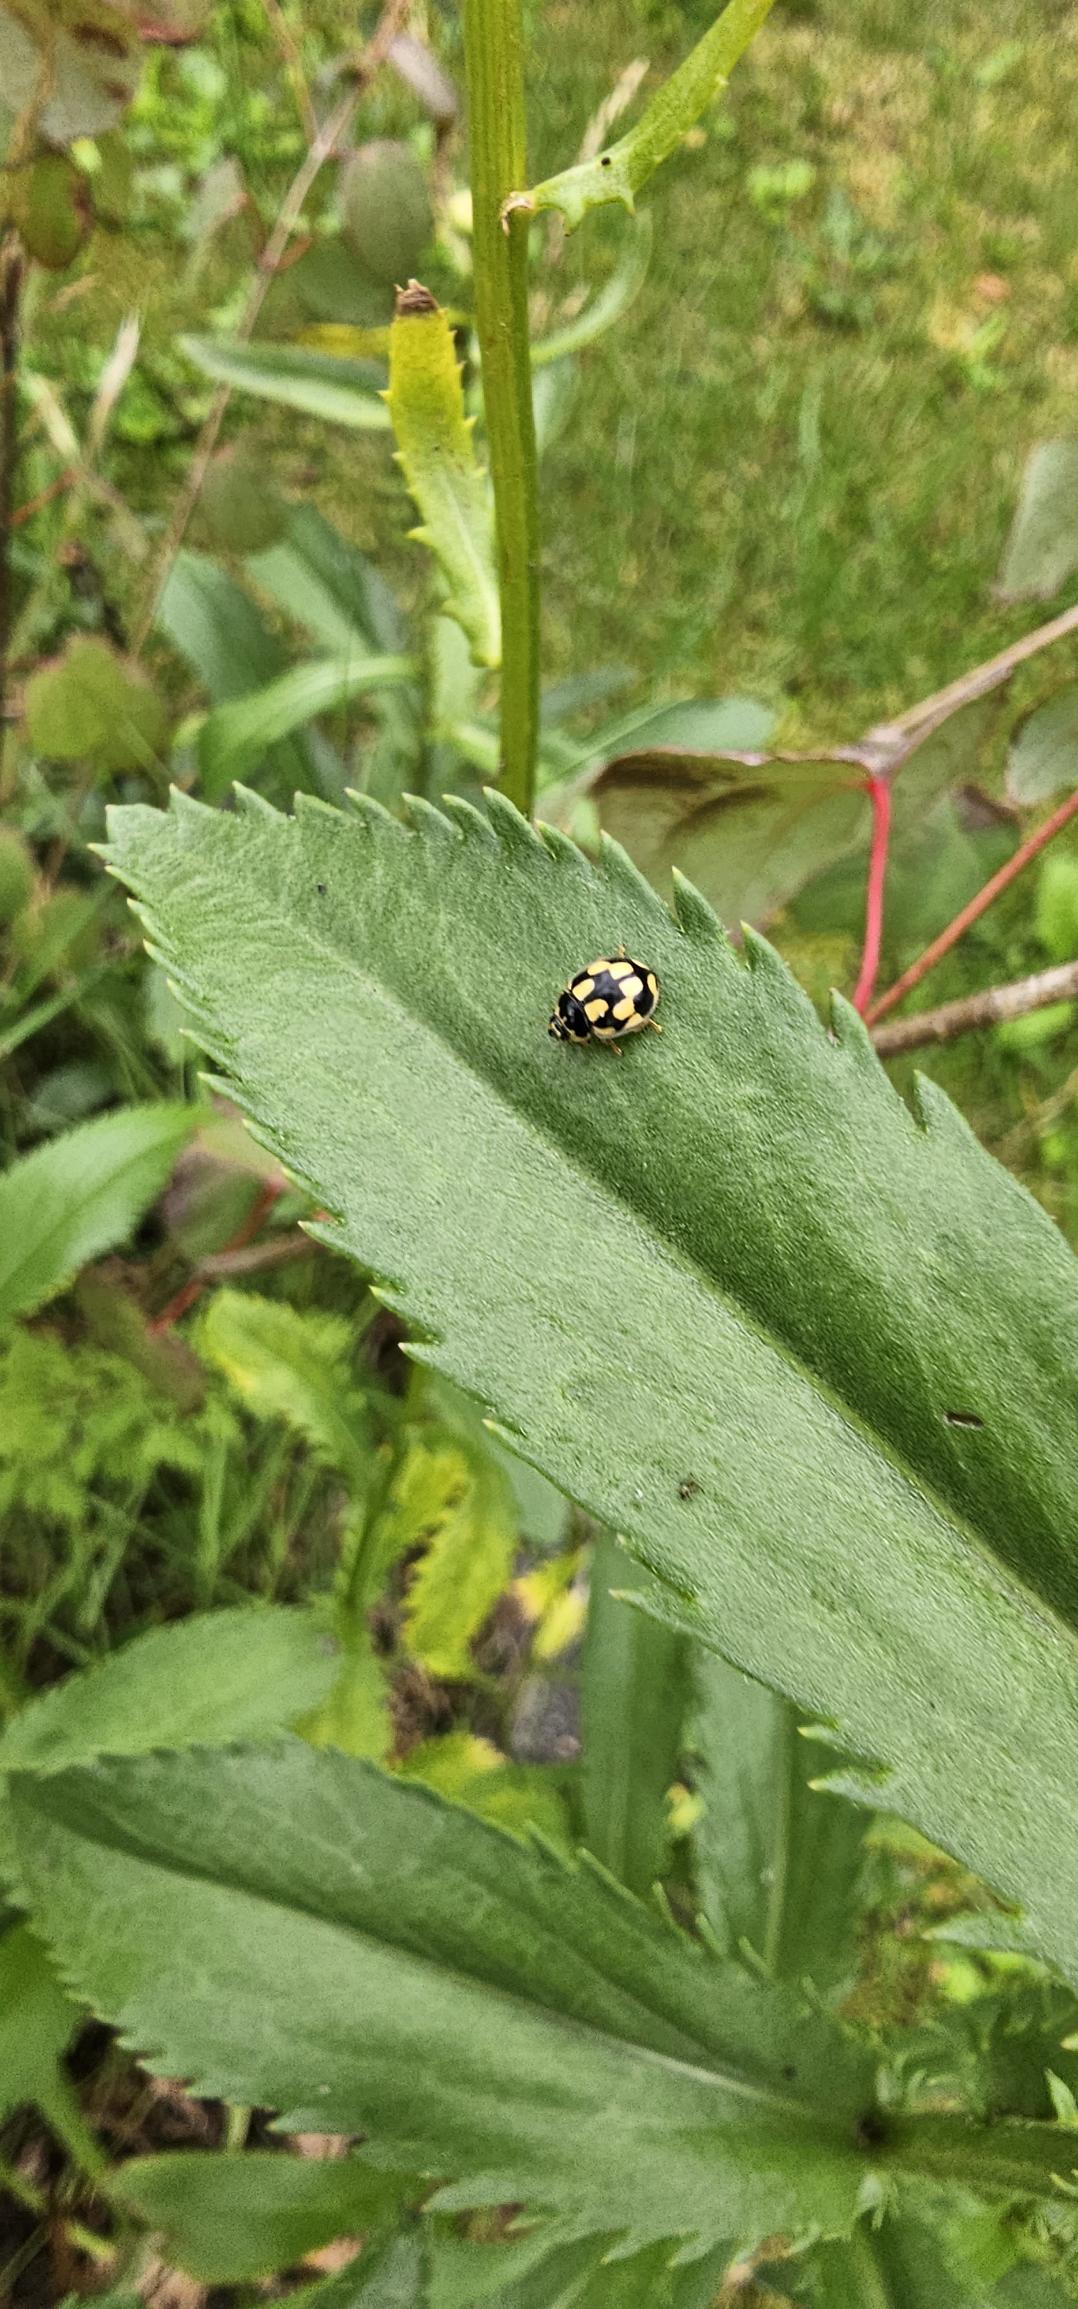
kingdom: Animalia
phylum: Arthropoda
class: Insecta
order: Coleoptera
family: Coccinellidae
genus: Propylaea
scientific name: Propylaea quatuordecimpunctata
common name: Skakbræt
